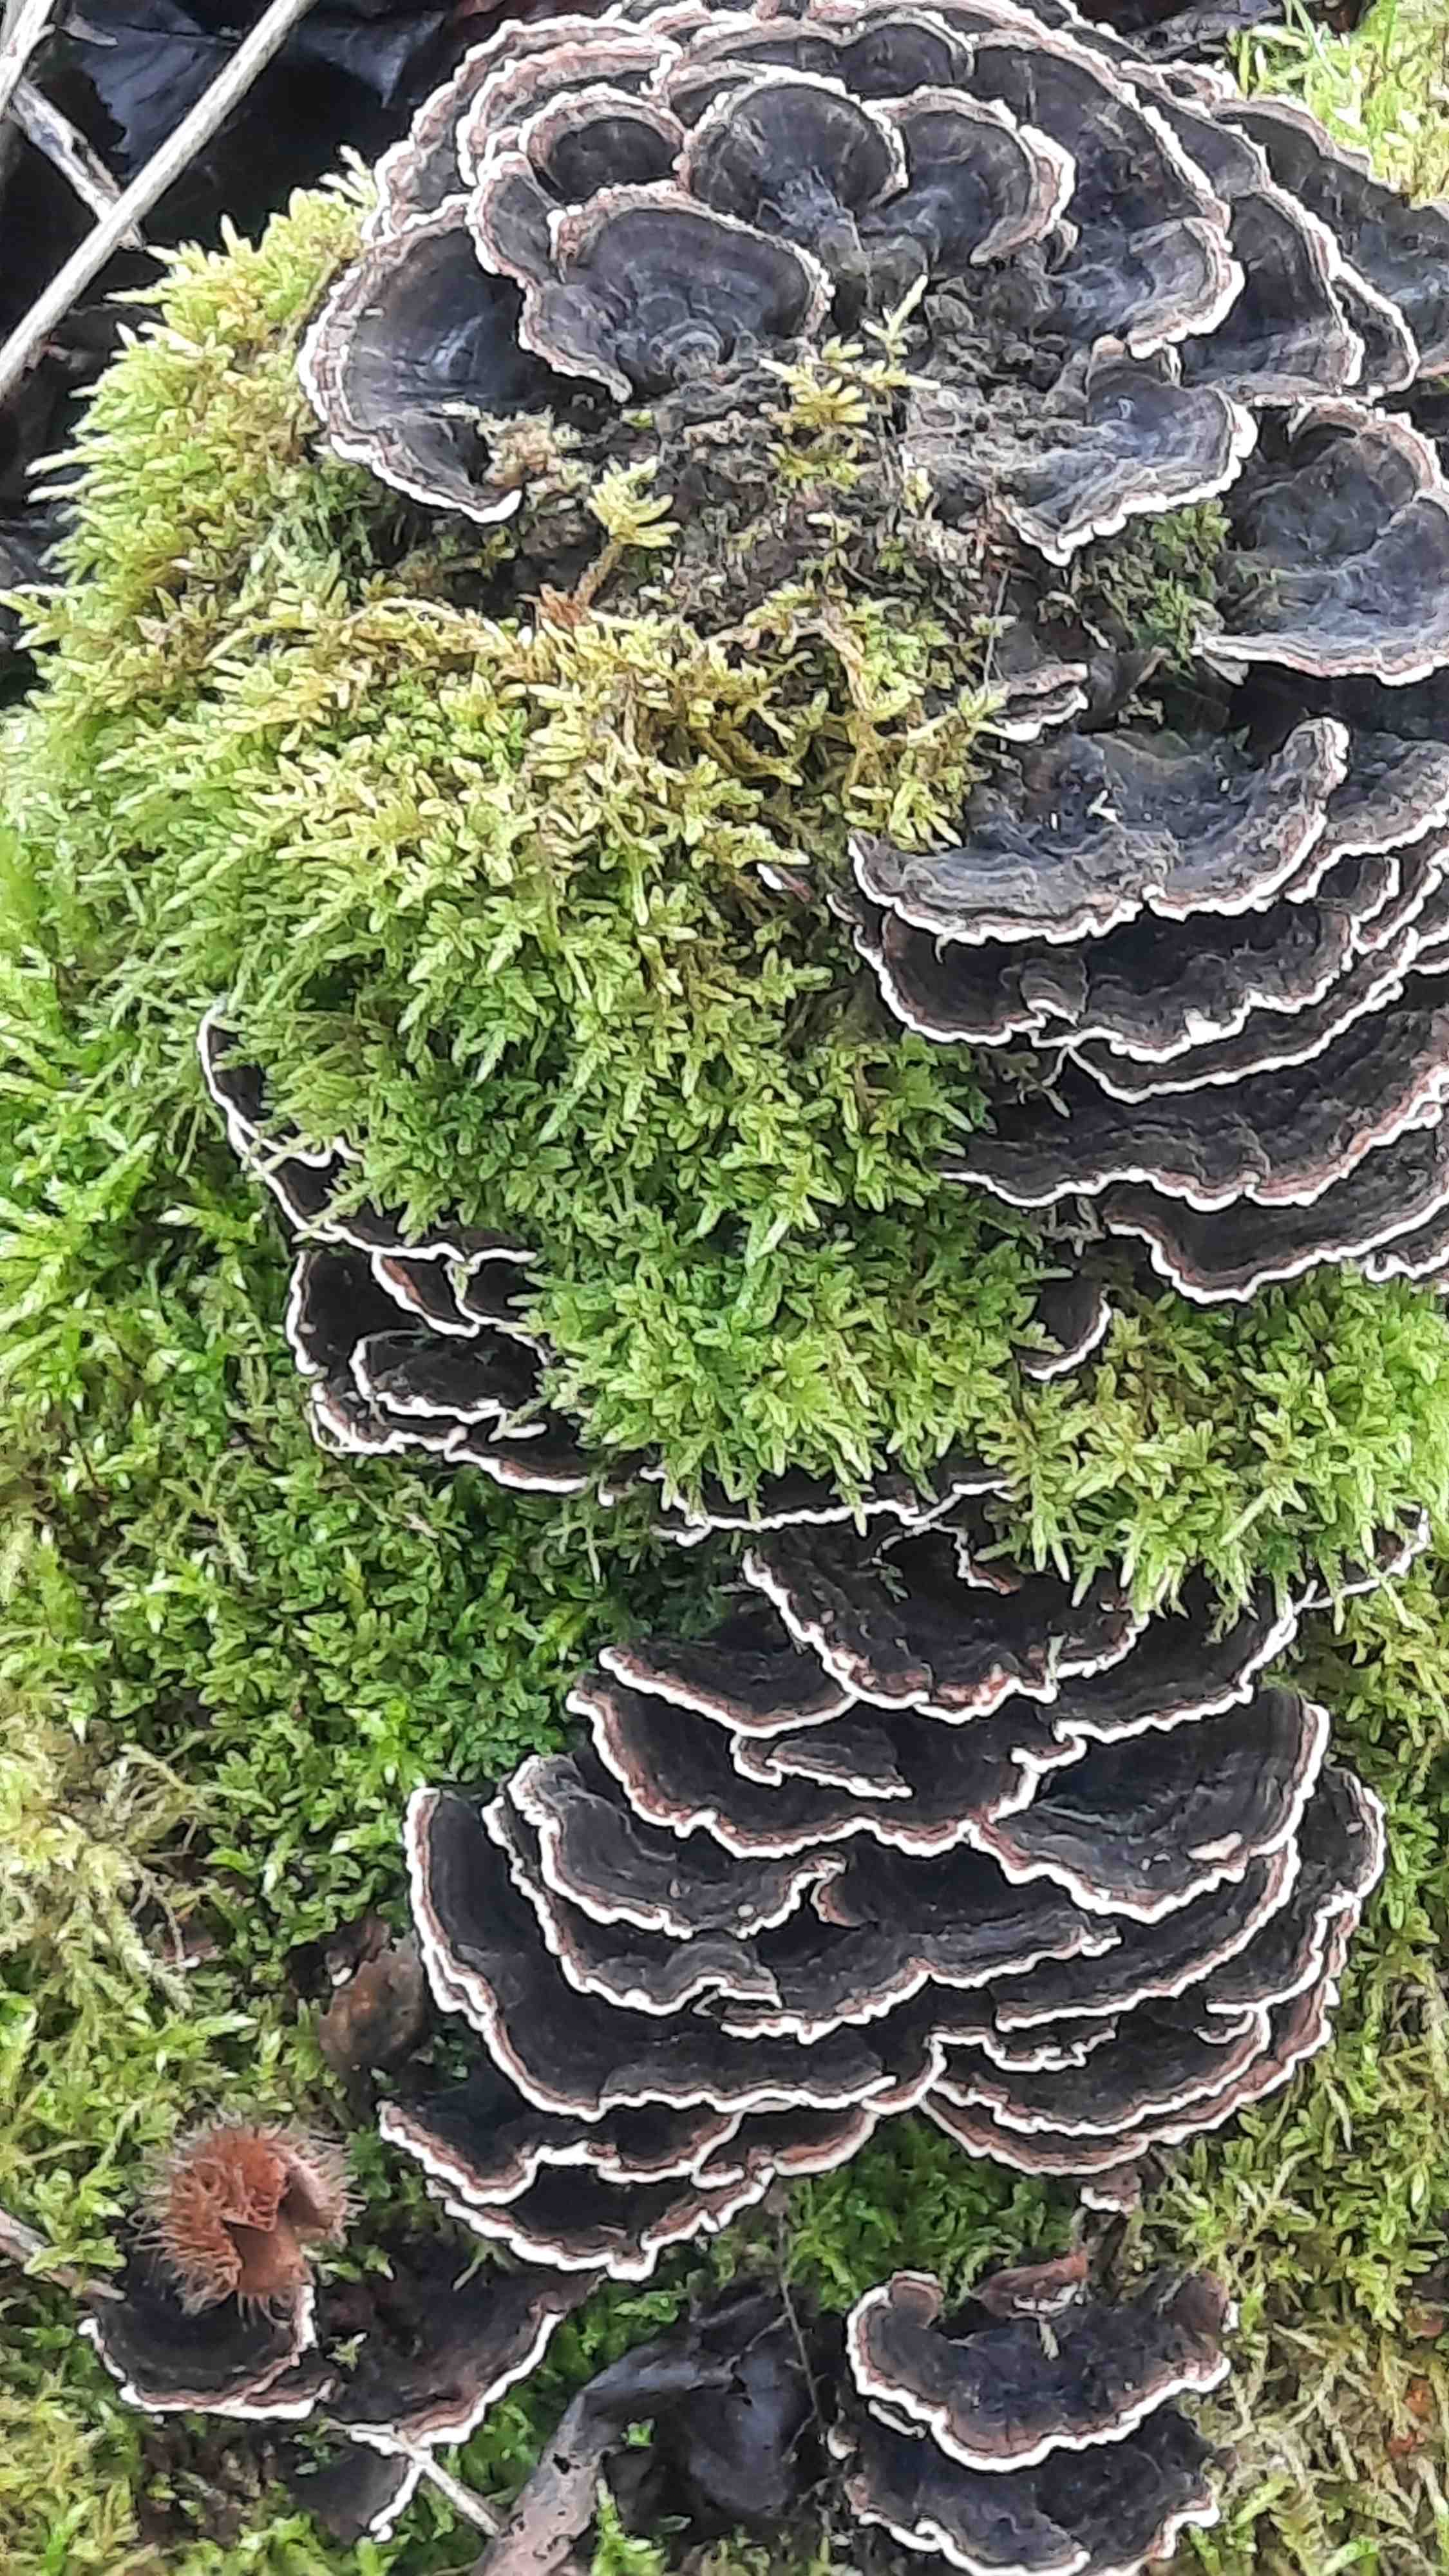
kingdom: Fungi
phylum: Basidiomycota
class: Agaricomycetes
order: Polyporales
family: Polyporaceae
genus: Trametes
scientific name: Trametes versicolor
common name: broget læderporesvamp
